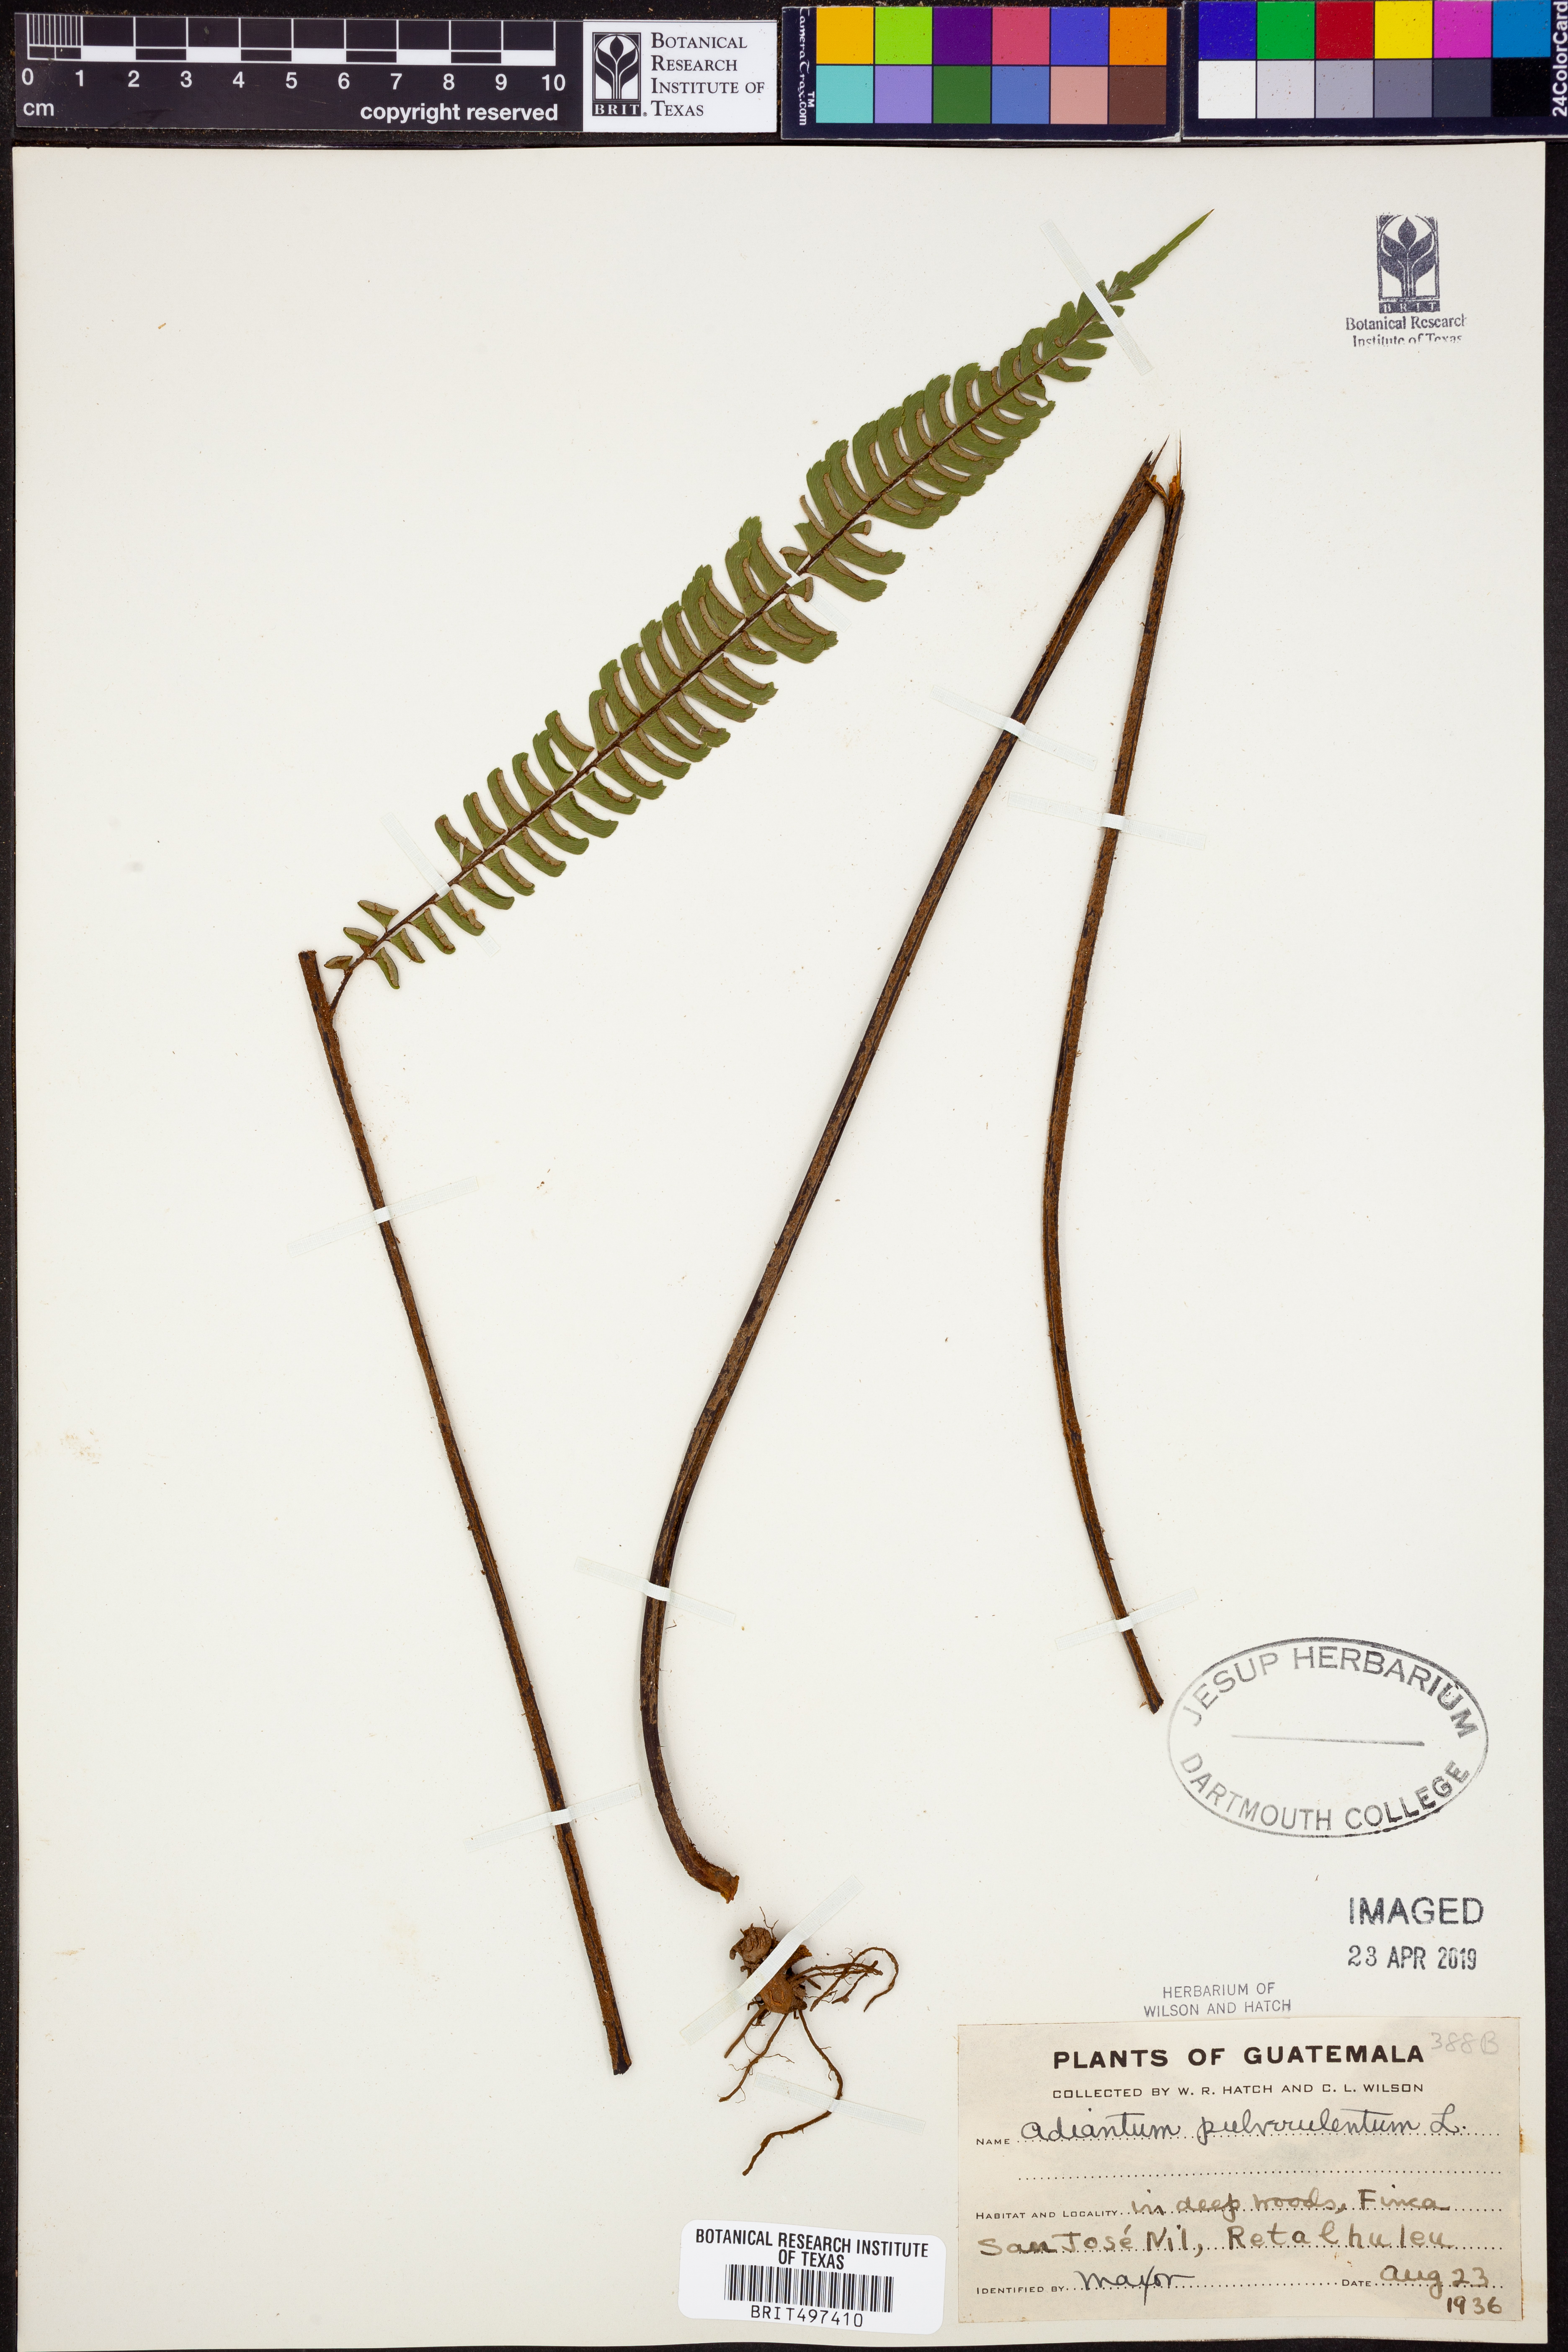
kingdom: Plantae
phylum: Tracheophyta
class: Polypodiopsida
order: Polypodiales
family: Pteridaceae
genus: Adiantum
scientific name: Adiantum pulverulentum
